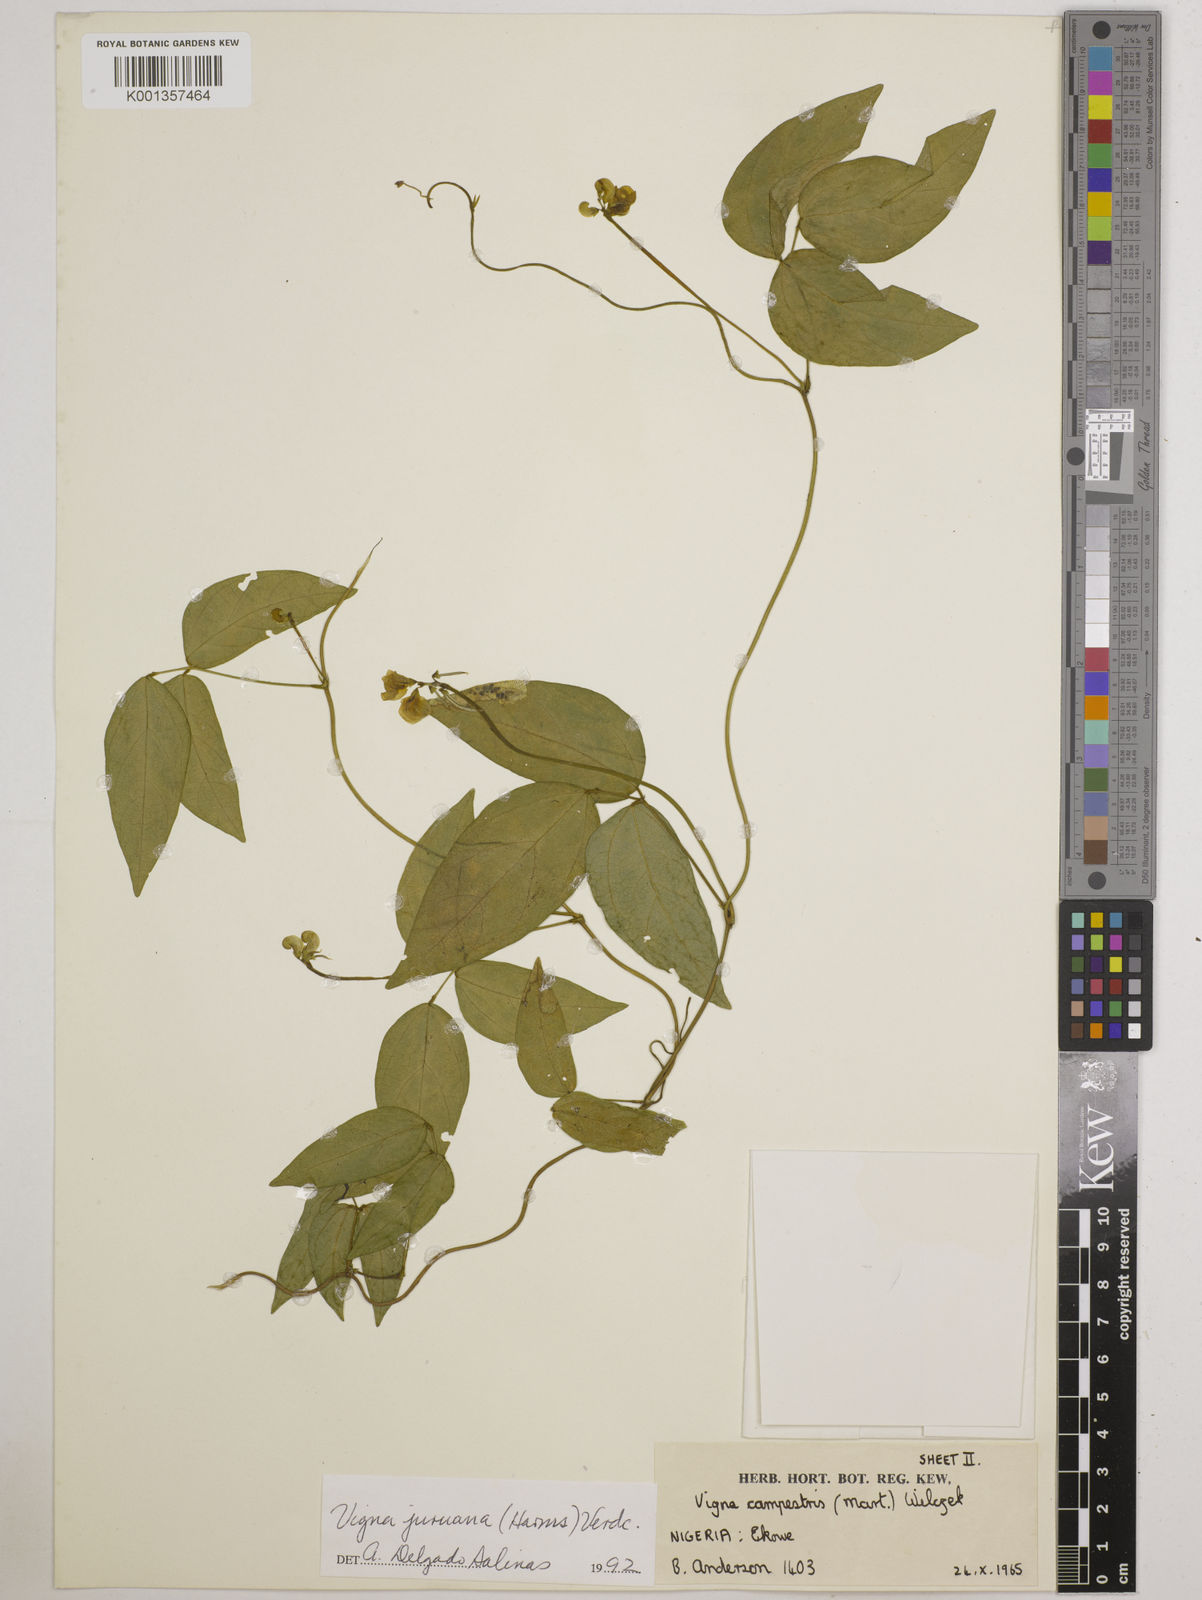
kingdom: Plantae
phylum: Tracheophyta
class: Magnoliopsida
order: Fabales
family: Fabaceae
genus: Vigna
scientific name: Vigna juruana
